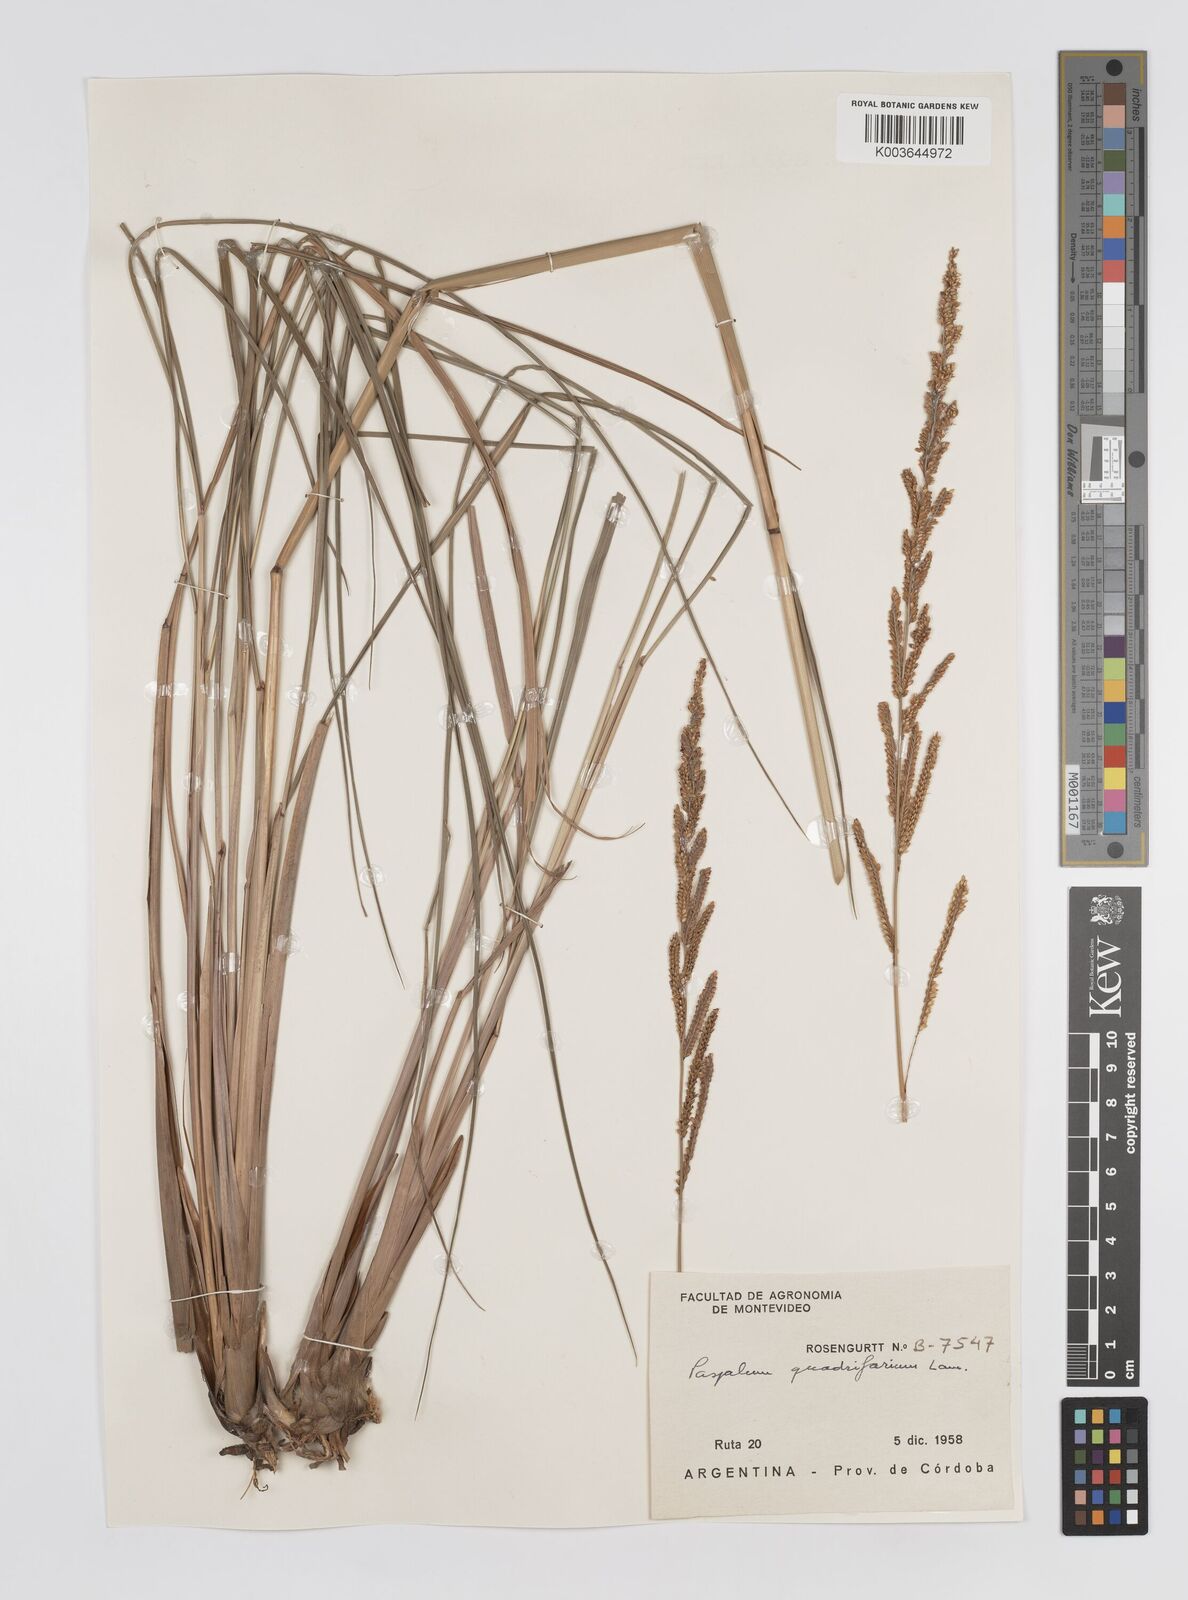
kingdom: Plantae
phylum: Tracheophyta
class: Liliopsida
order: Poales
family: Poaceae
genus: Paspalum
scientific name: Paspalum quadrifarium
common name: Tussock paspalum
